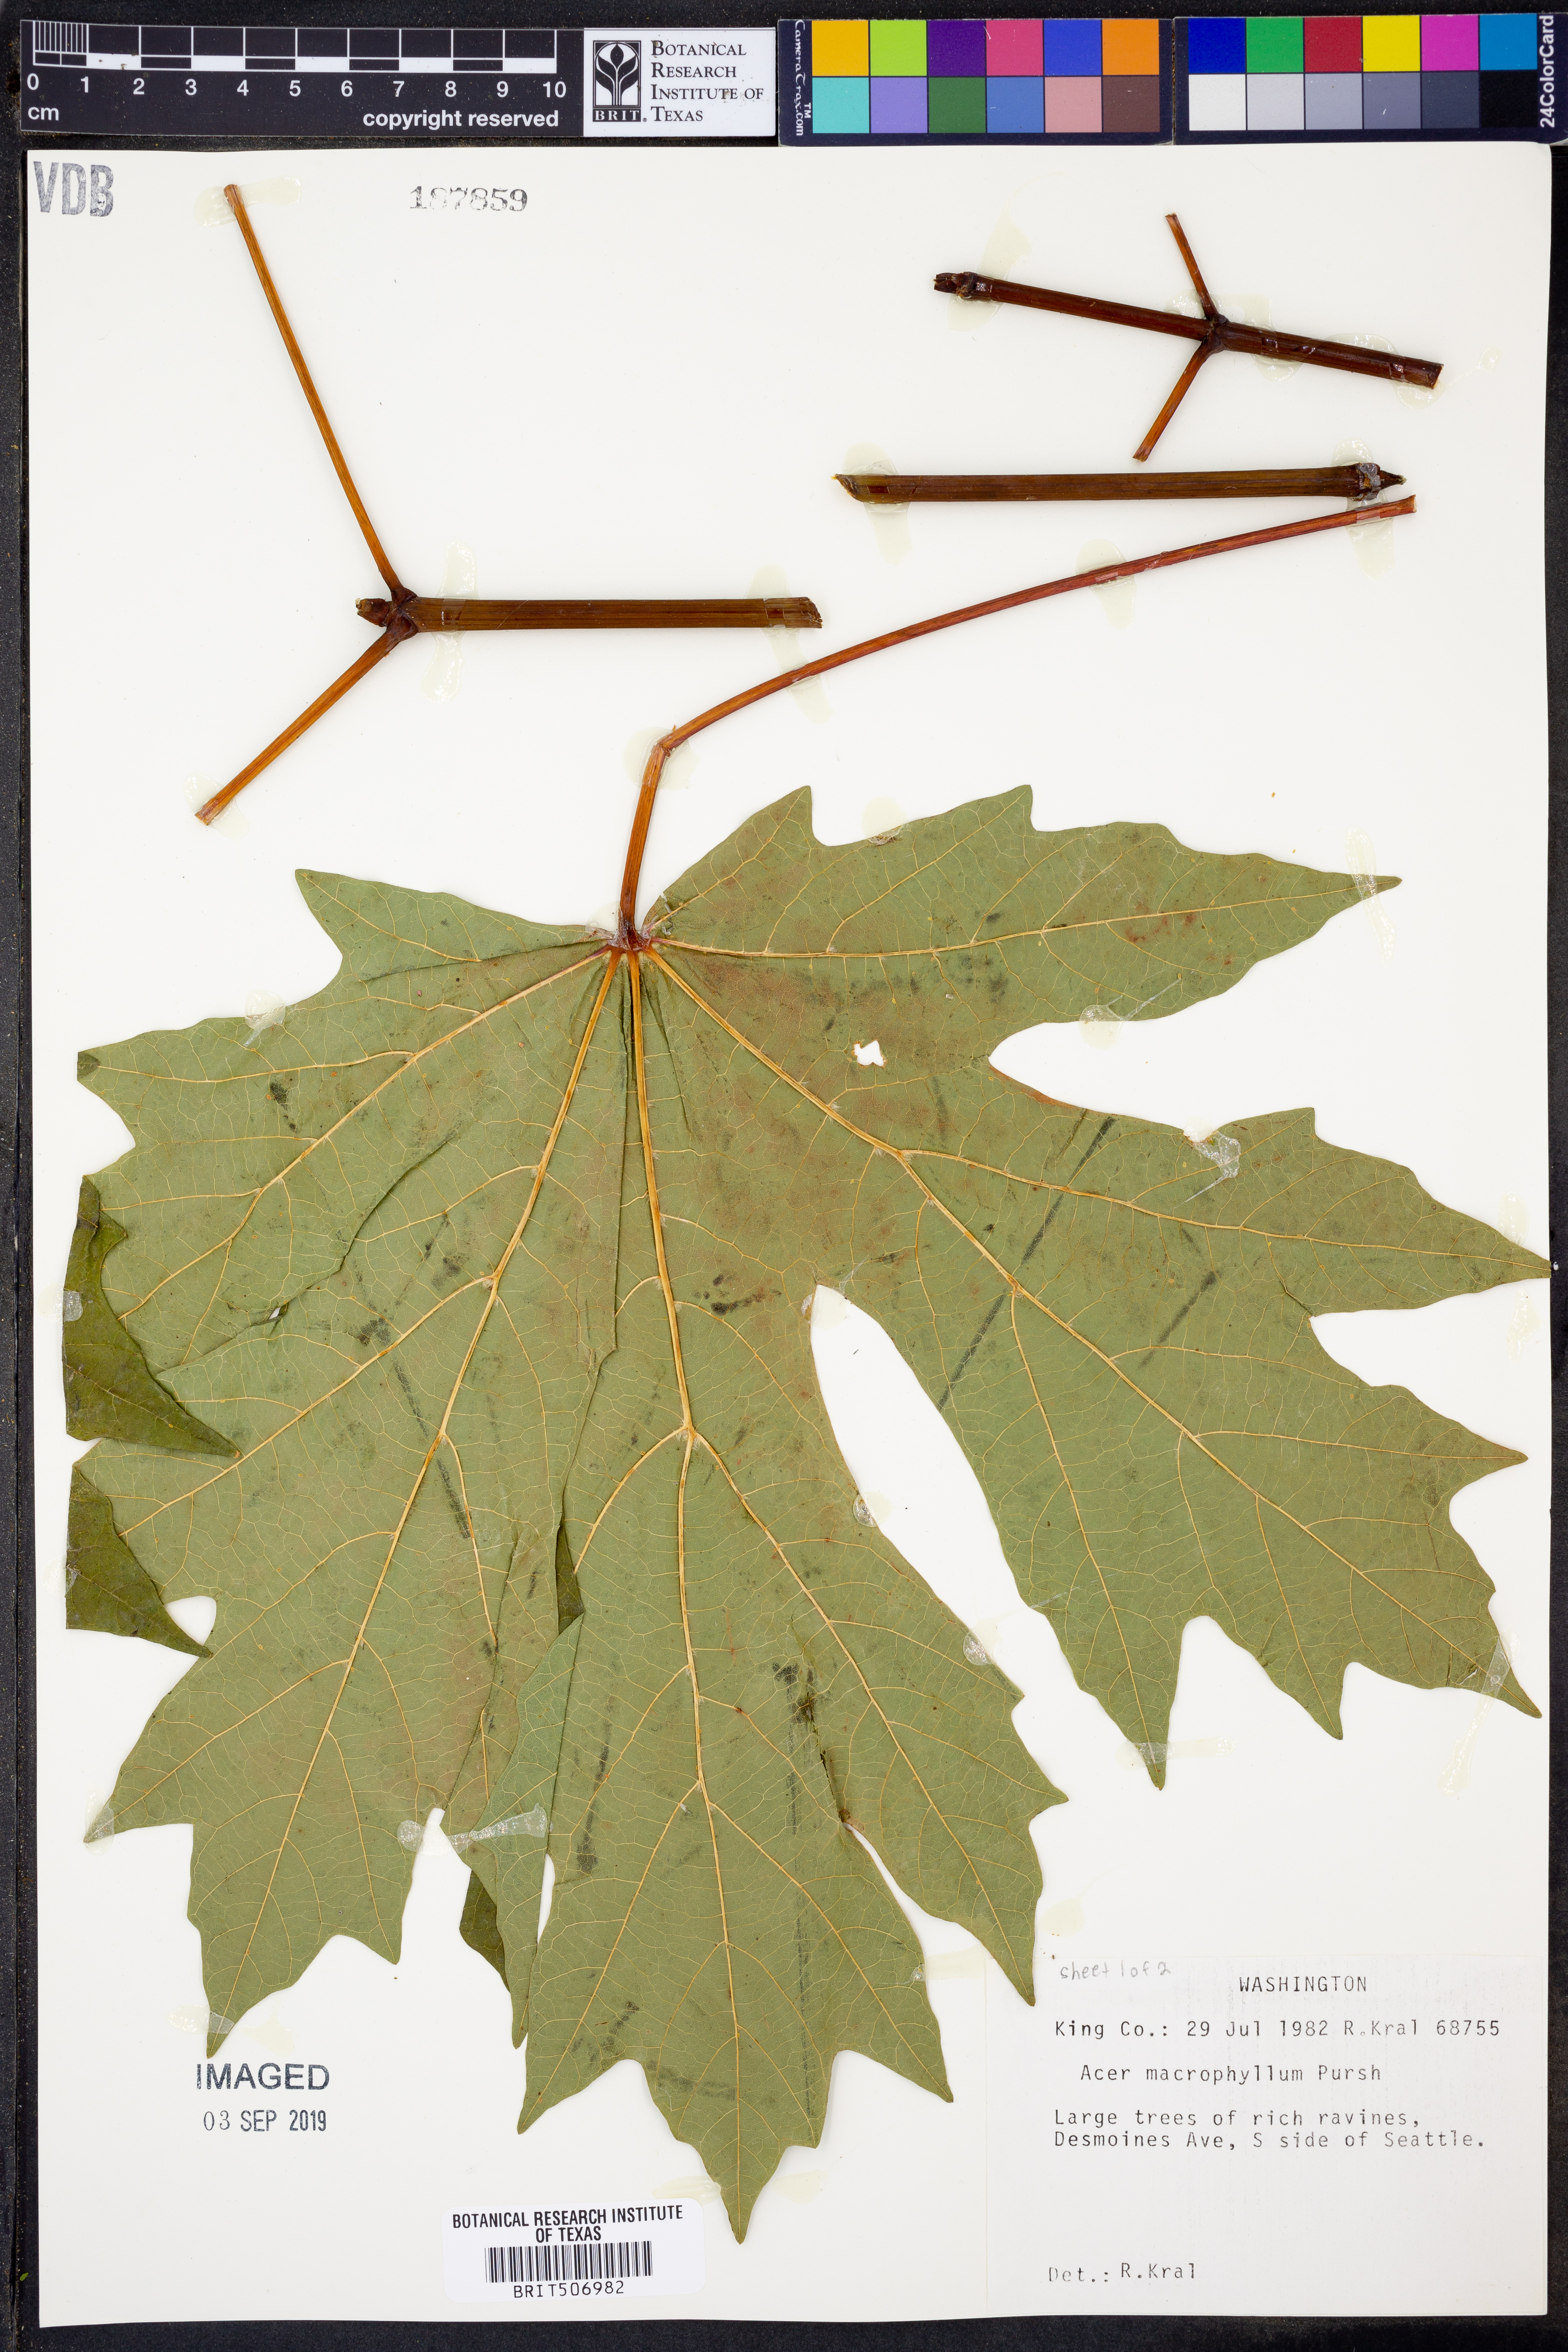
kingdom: Plantae
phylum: Tracheophyta
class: Magnoliopsida
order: Sapindales
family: Sapindaceae
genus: Acer
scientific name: Acer macrophyllum
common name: Oregon maple
